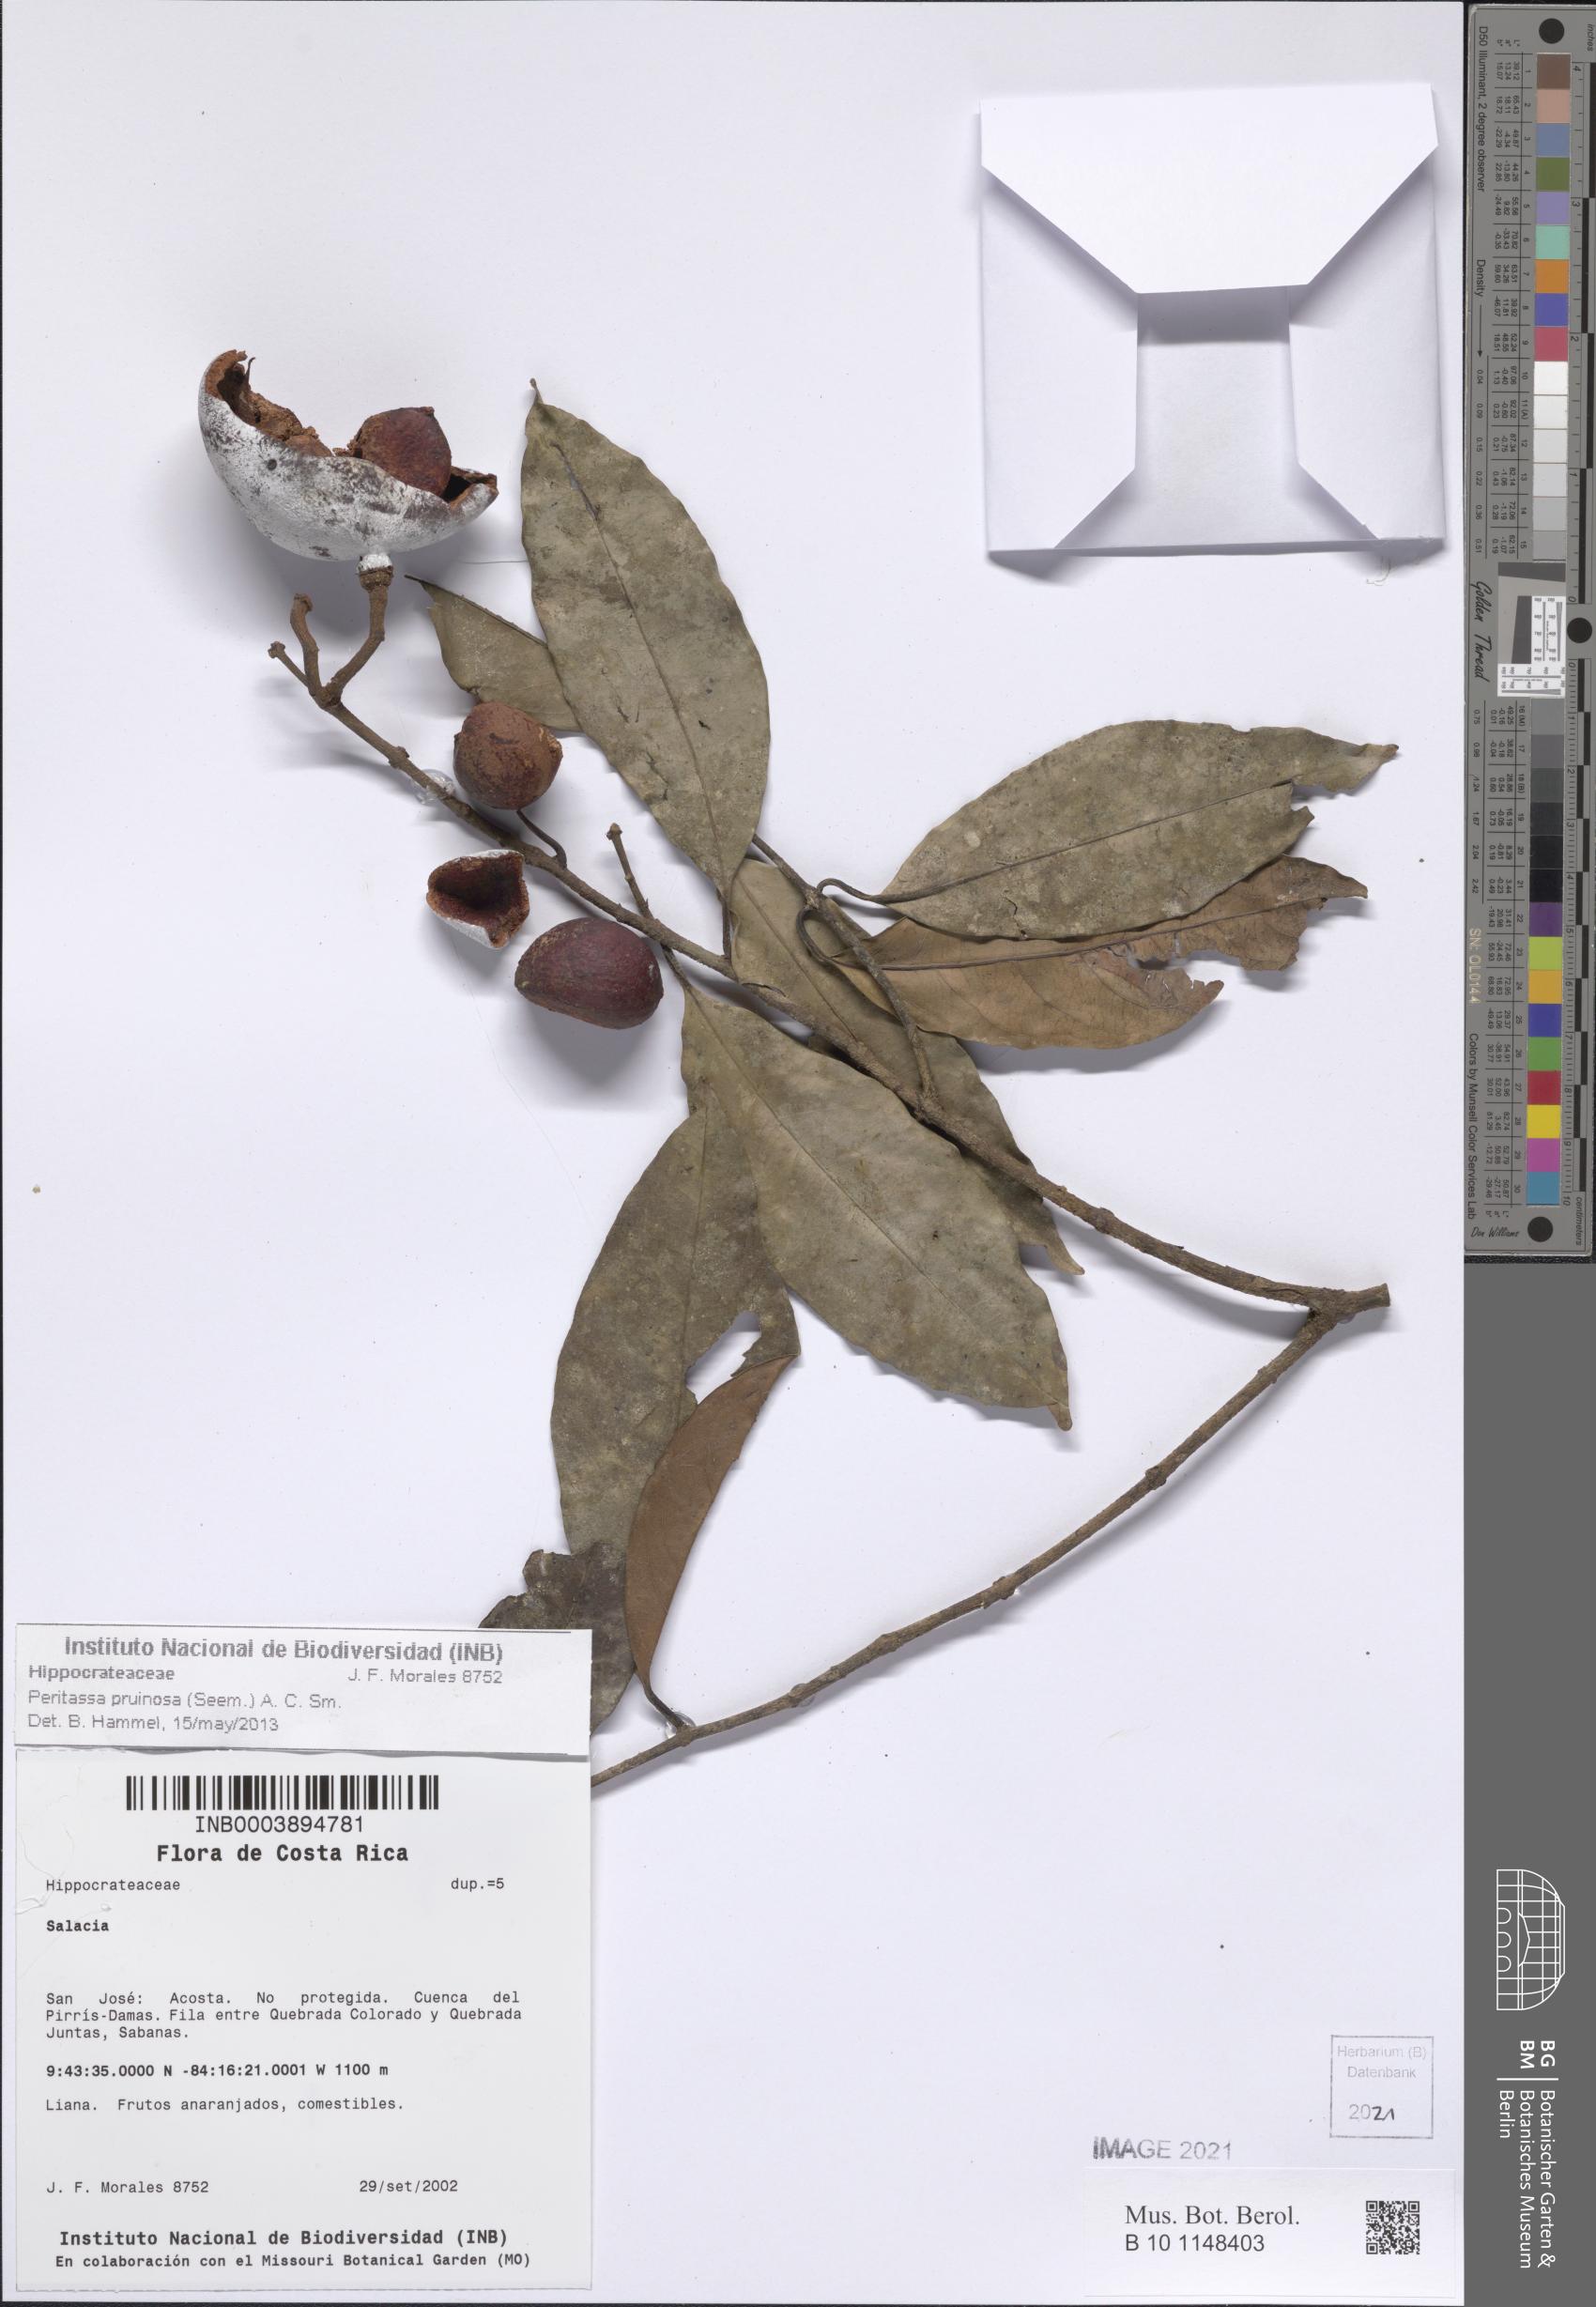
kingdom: Plantae
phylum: Tracheophyta
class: Magnoliopsida
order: Celastrales
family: Celastraceae
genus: Peritassa
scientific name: Peritassa pruinosa
